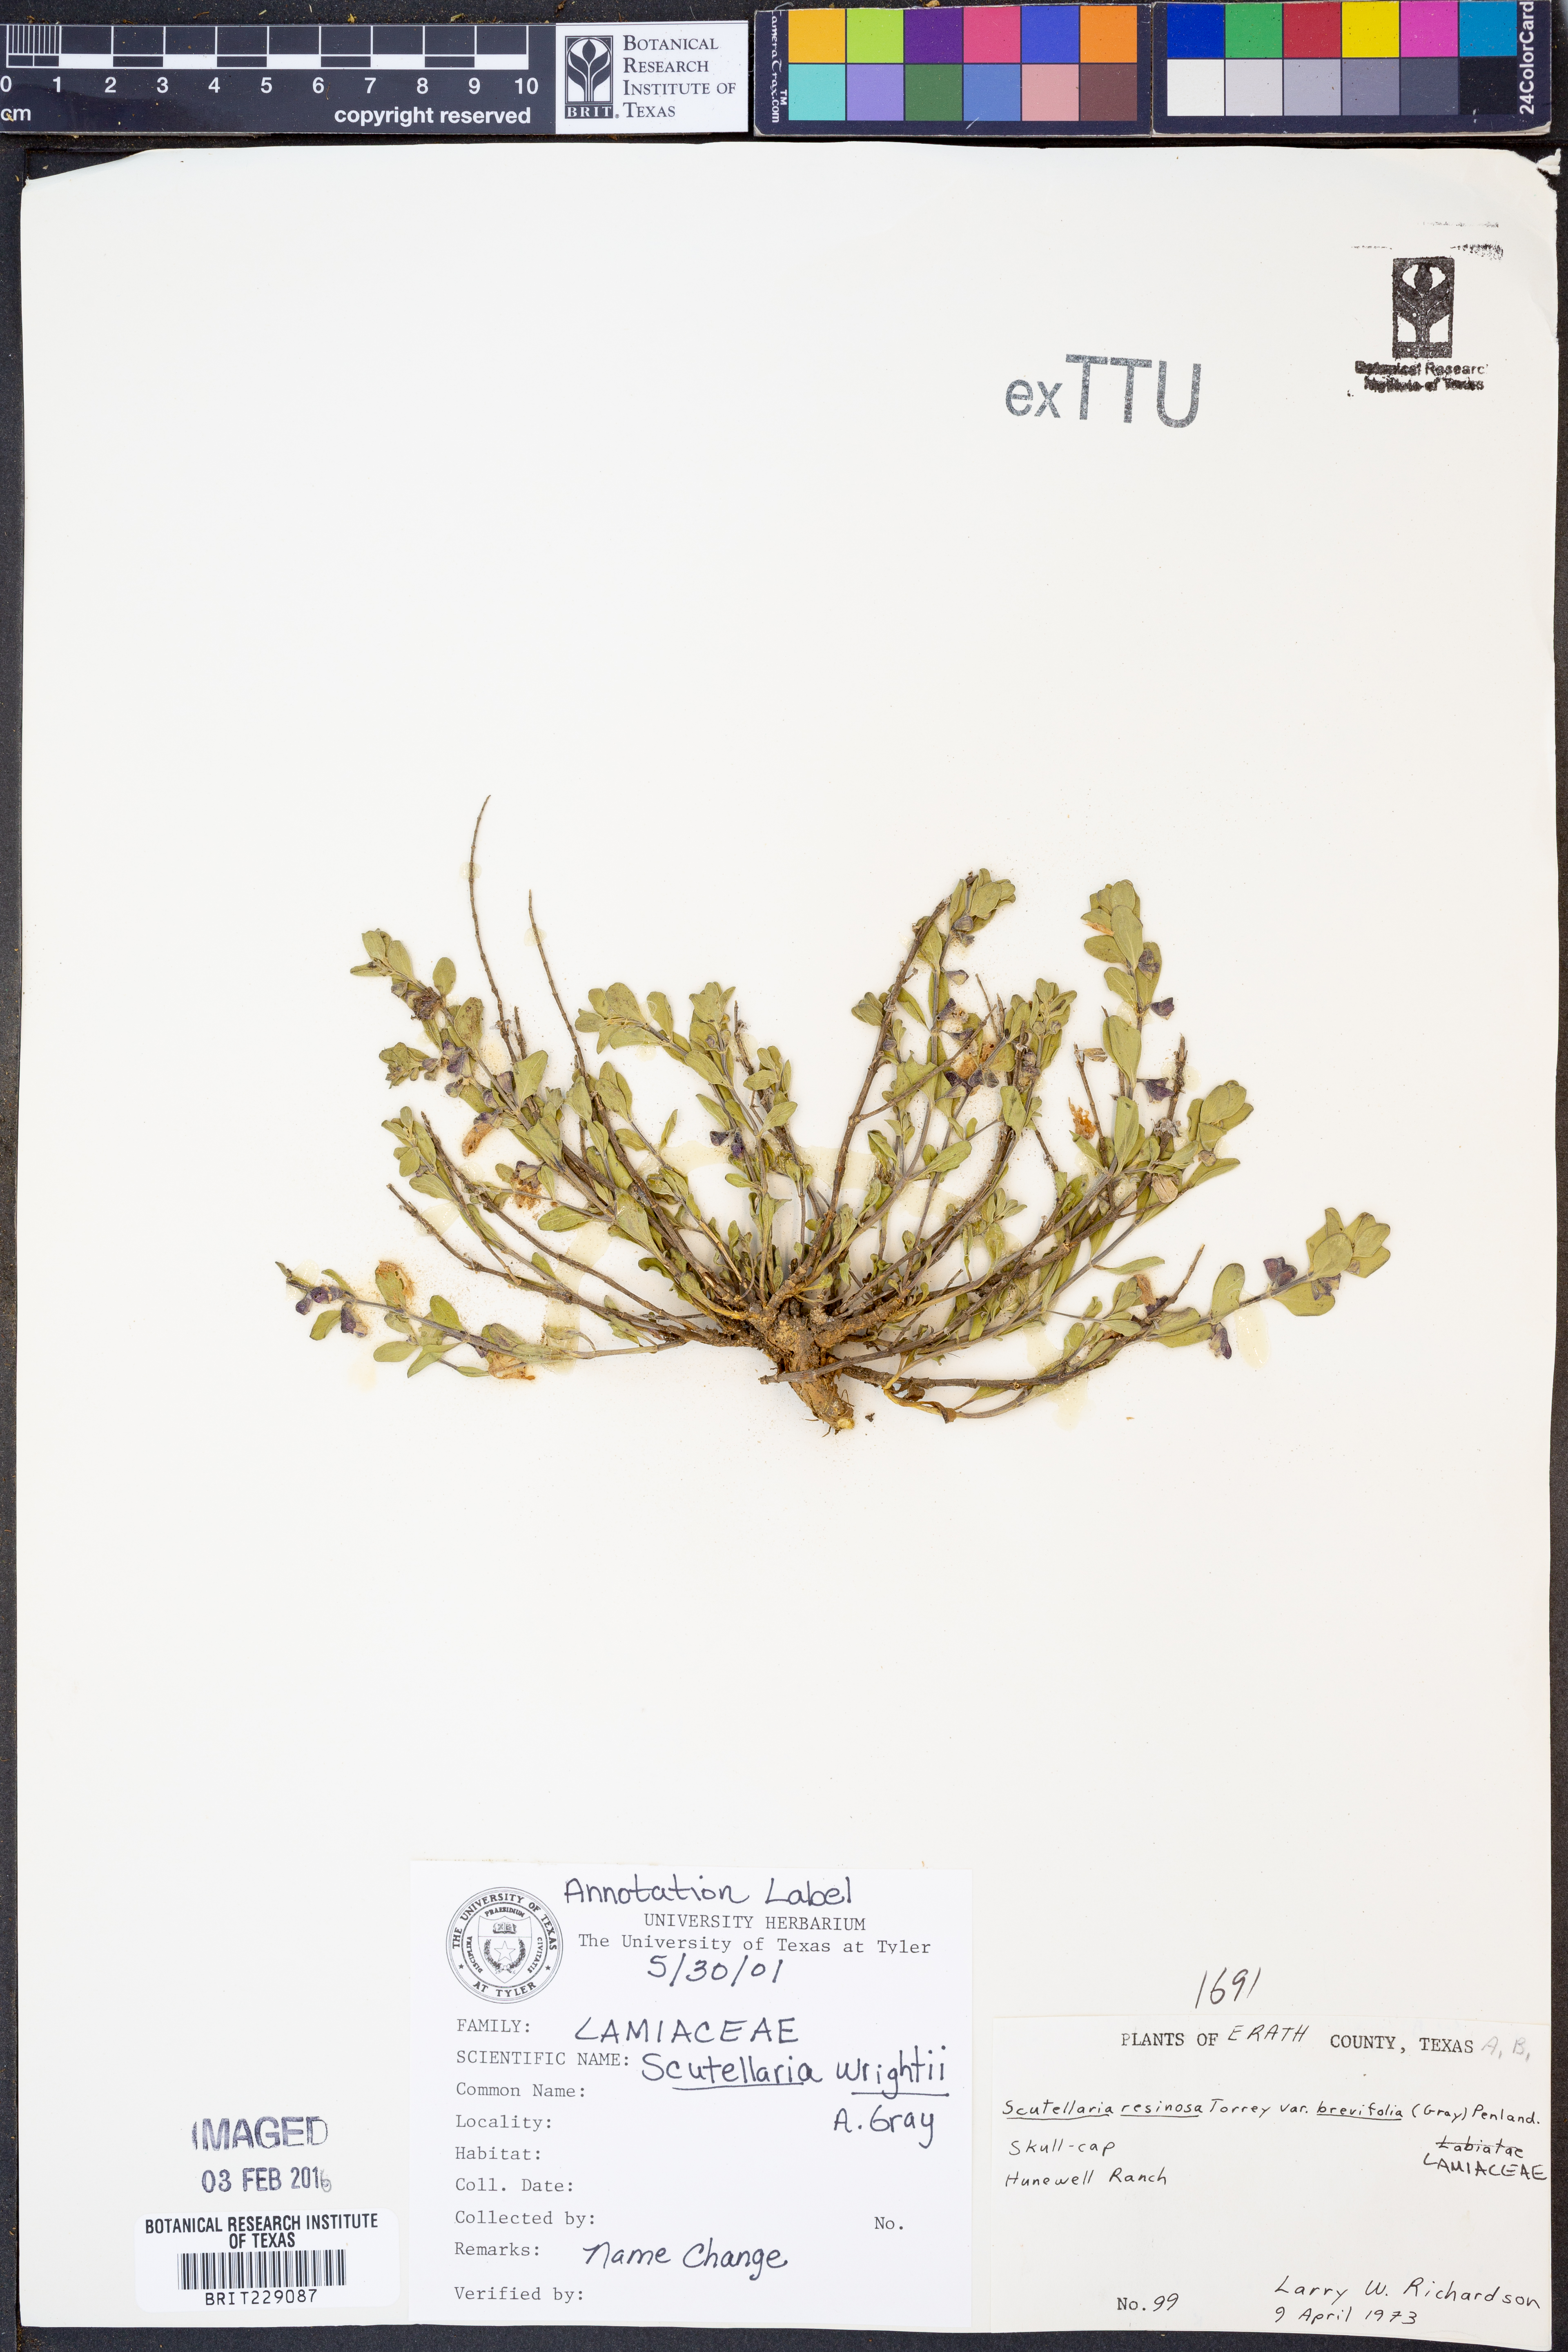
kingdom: Plantae
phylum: Tracheophyta
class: Magnoliopsida
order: Lamiales
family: Lamiaceae
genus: Scutellaria
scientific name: Scutellaria wrightii
